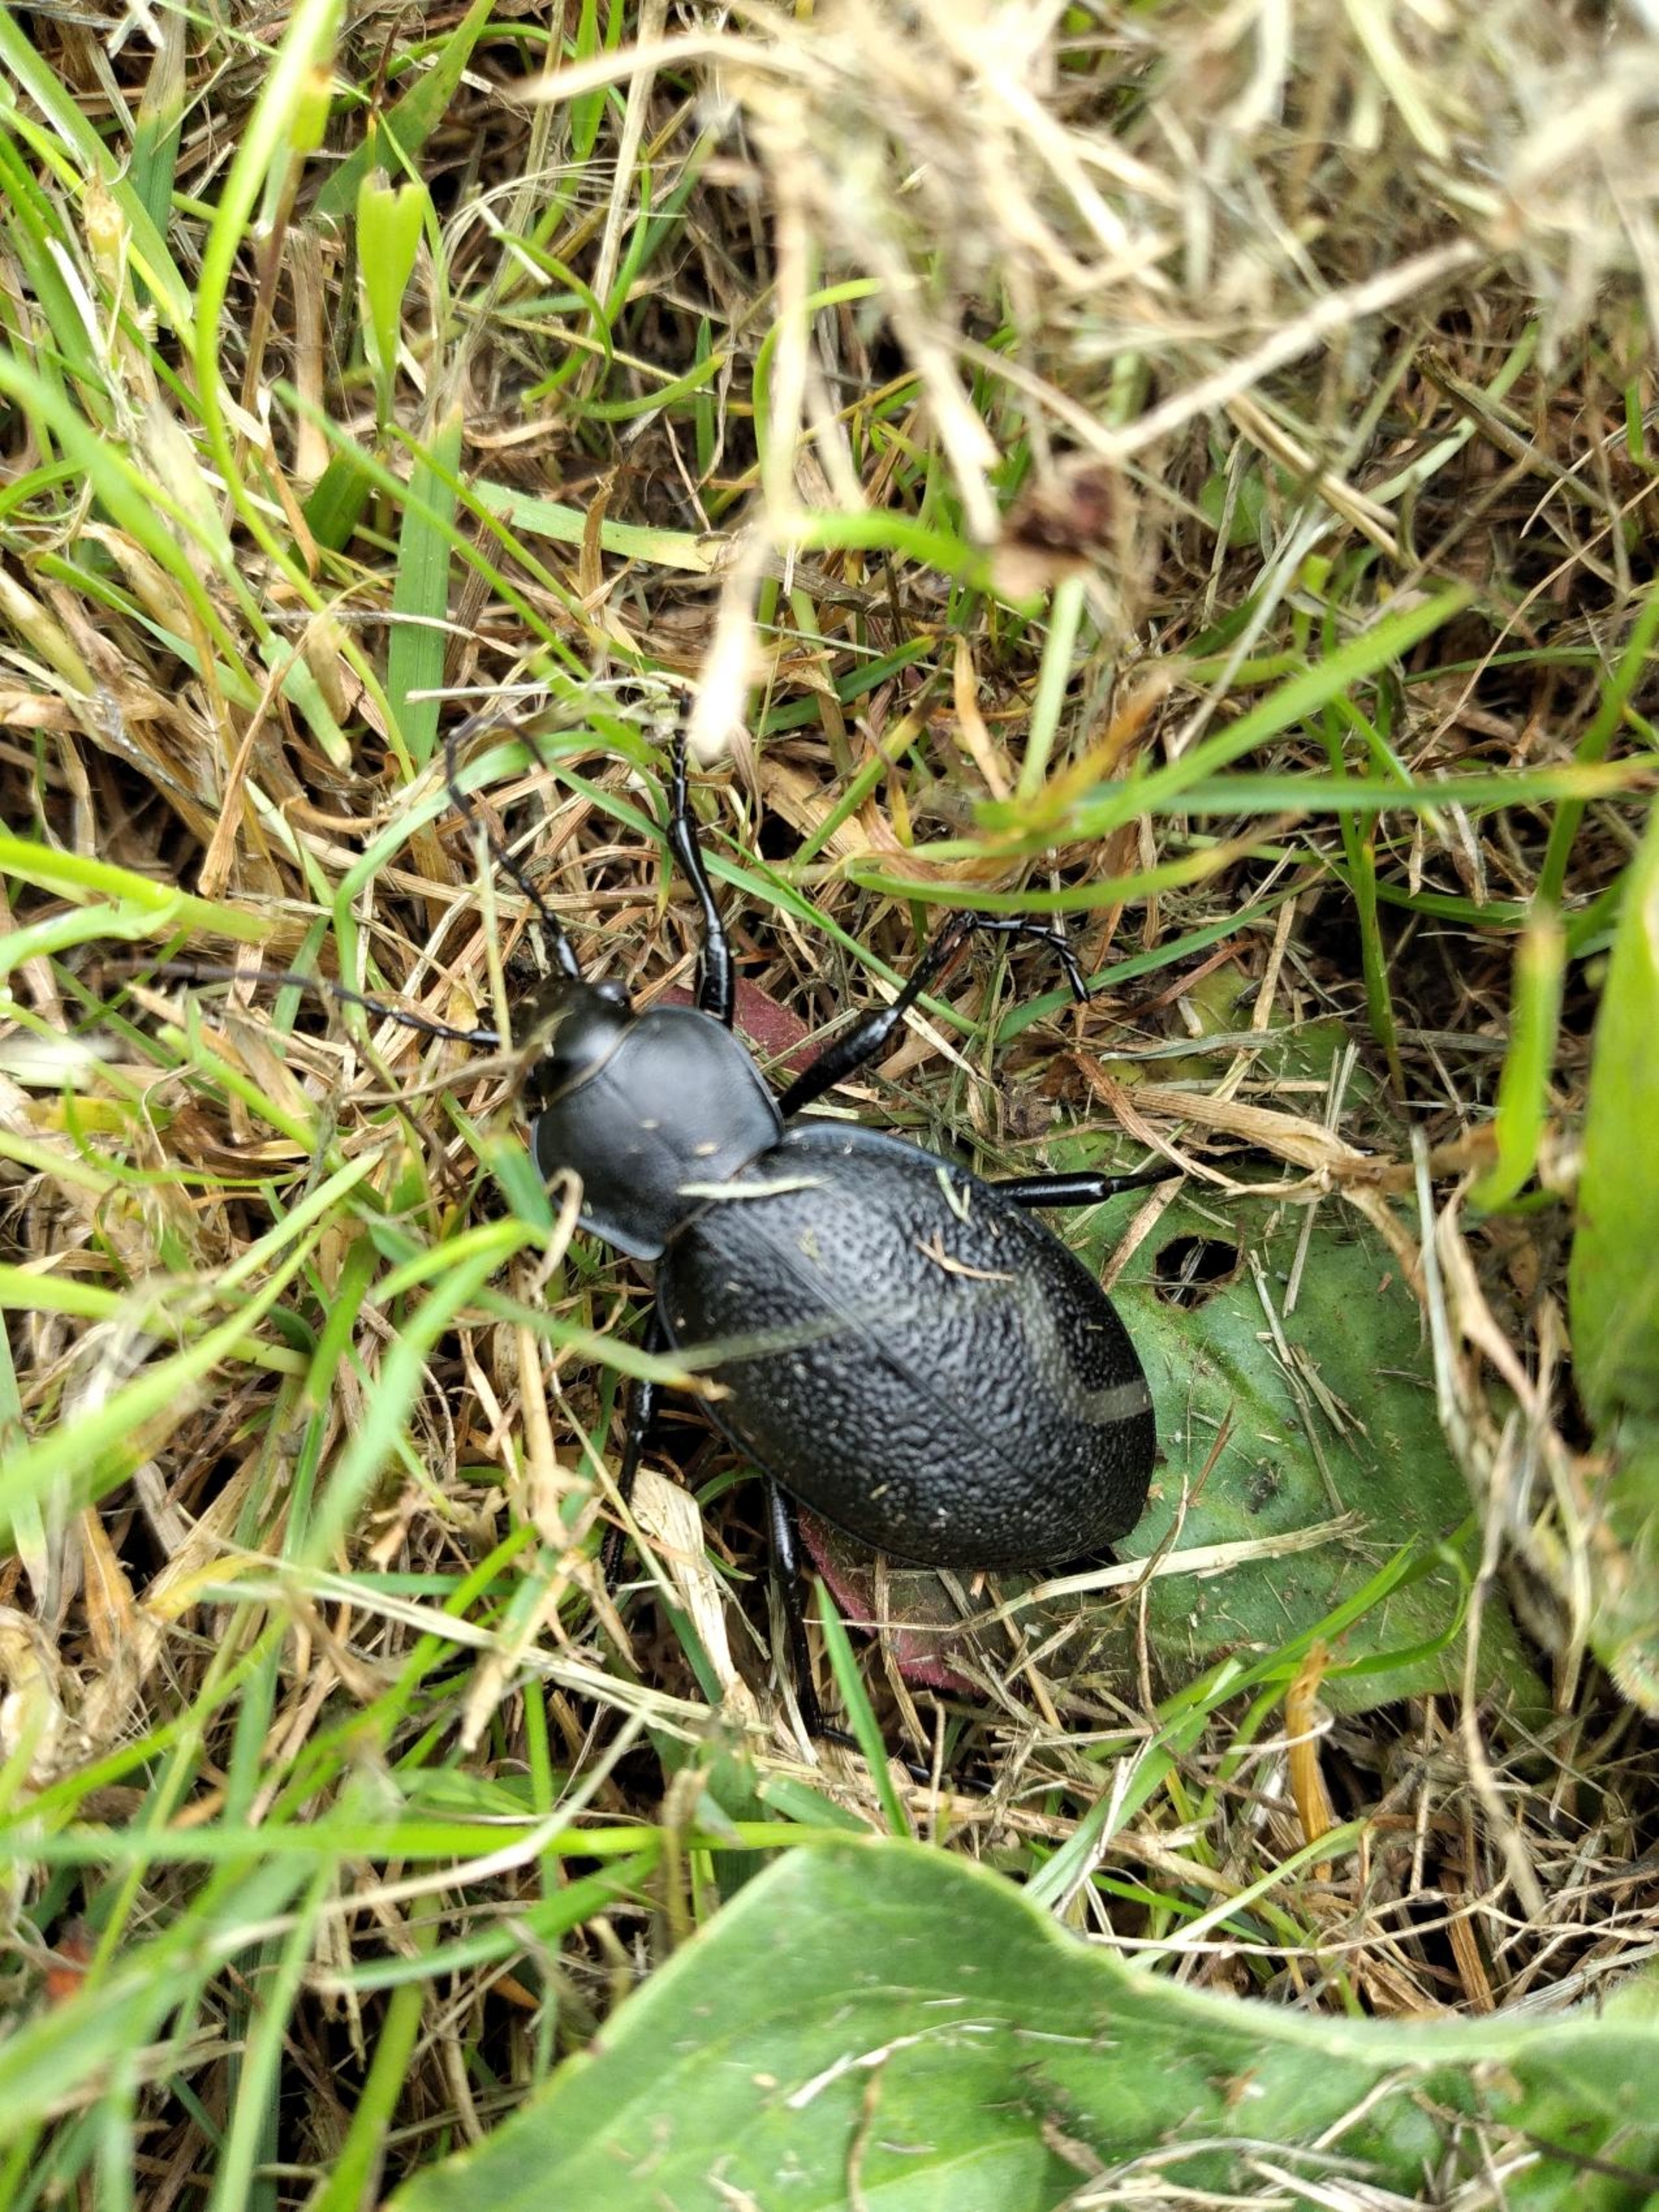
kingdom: Animalia
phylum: Arthropoda
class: Insecta
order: Coleoptera
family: Carabidae
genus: Carabus
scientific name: Carabus coriaceus
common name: Læderløber
